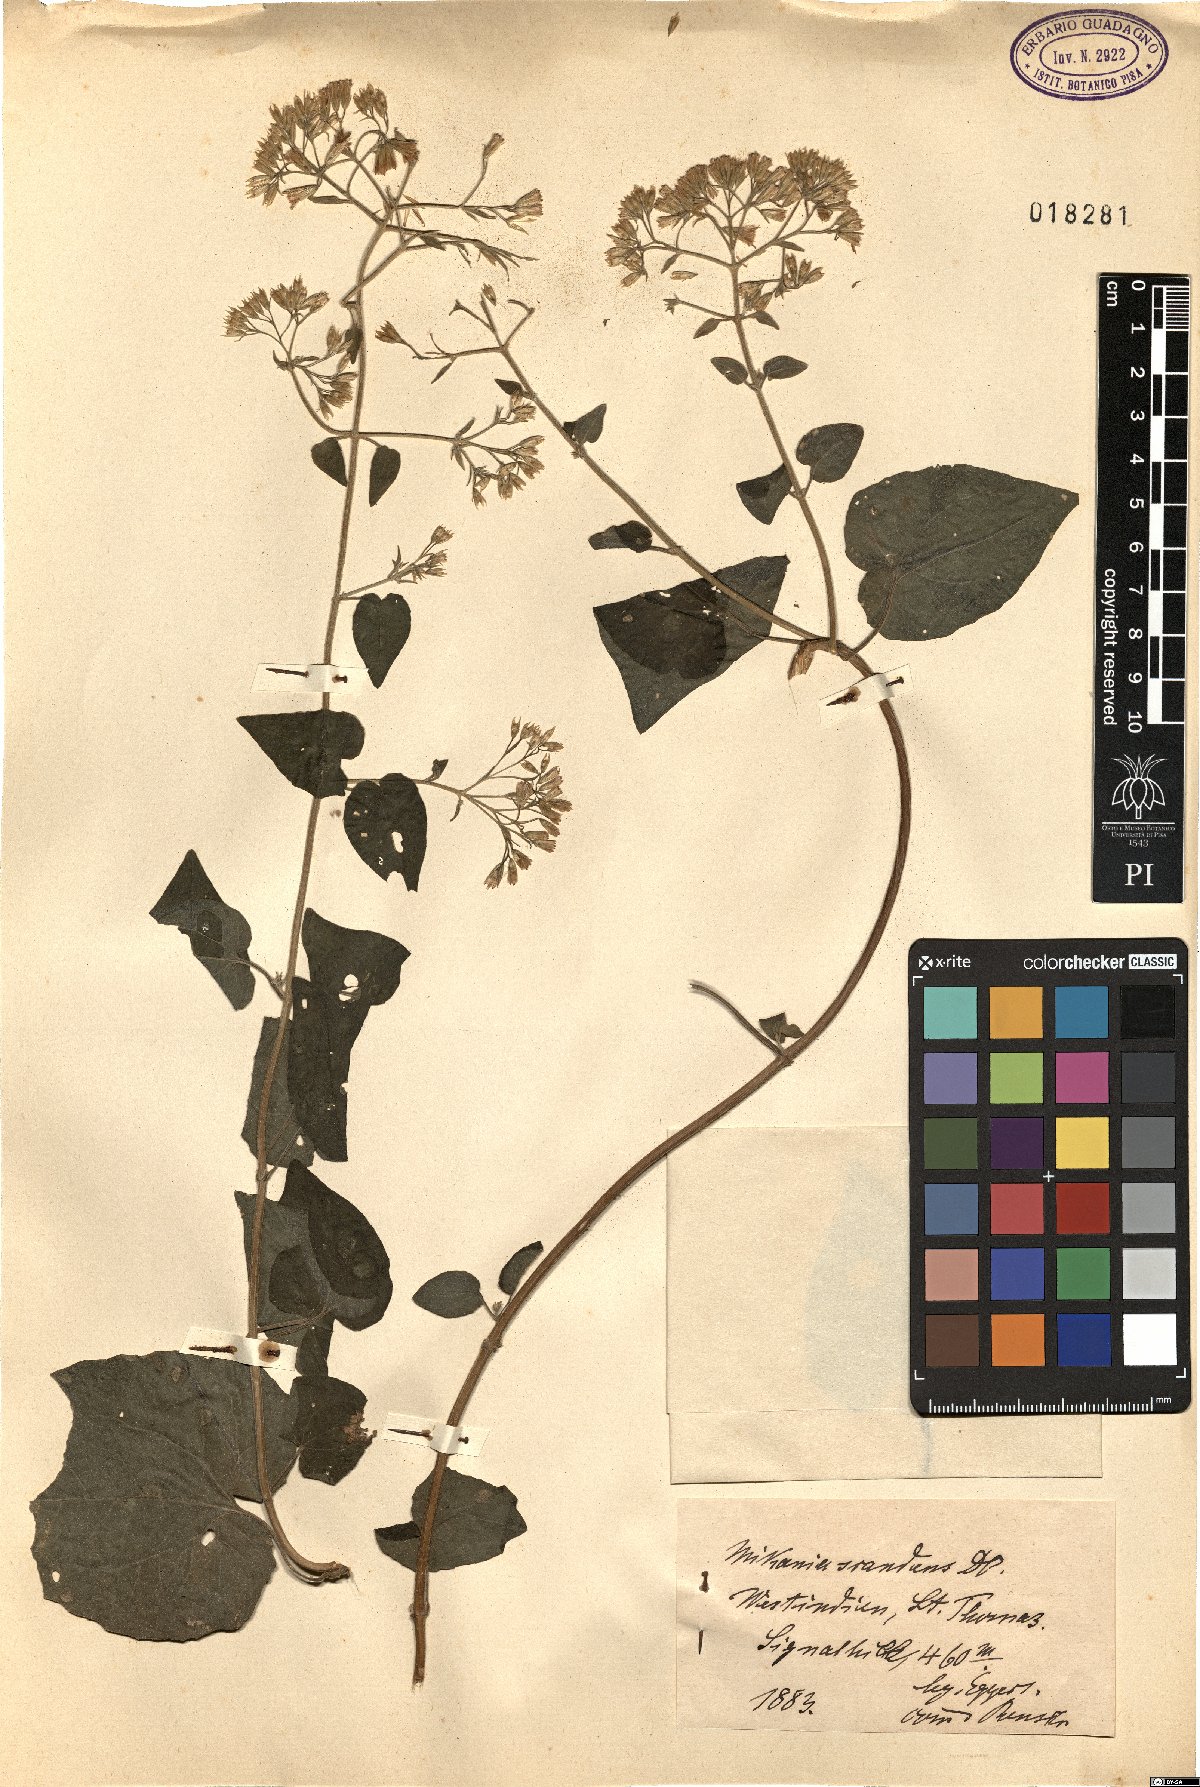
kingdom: Plantae
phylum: Tracheophyta
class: Magnoliopsida
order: Asterales
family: Asteraceae
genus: Mikania
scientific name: Mikania scandens
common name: Climbing hempvine
